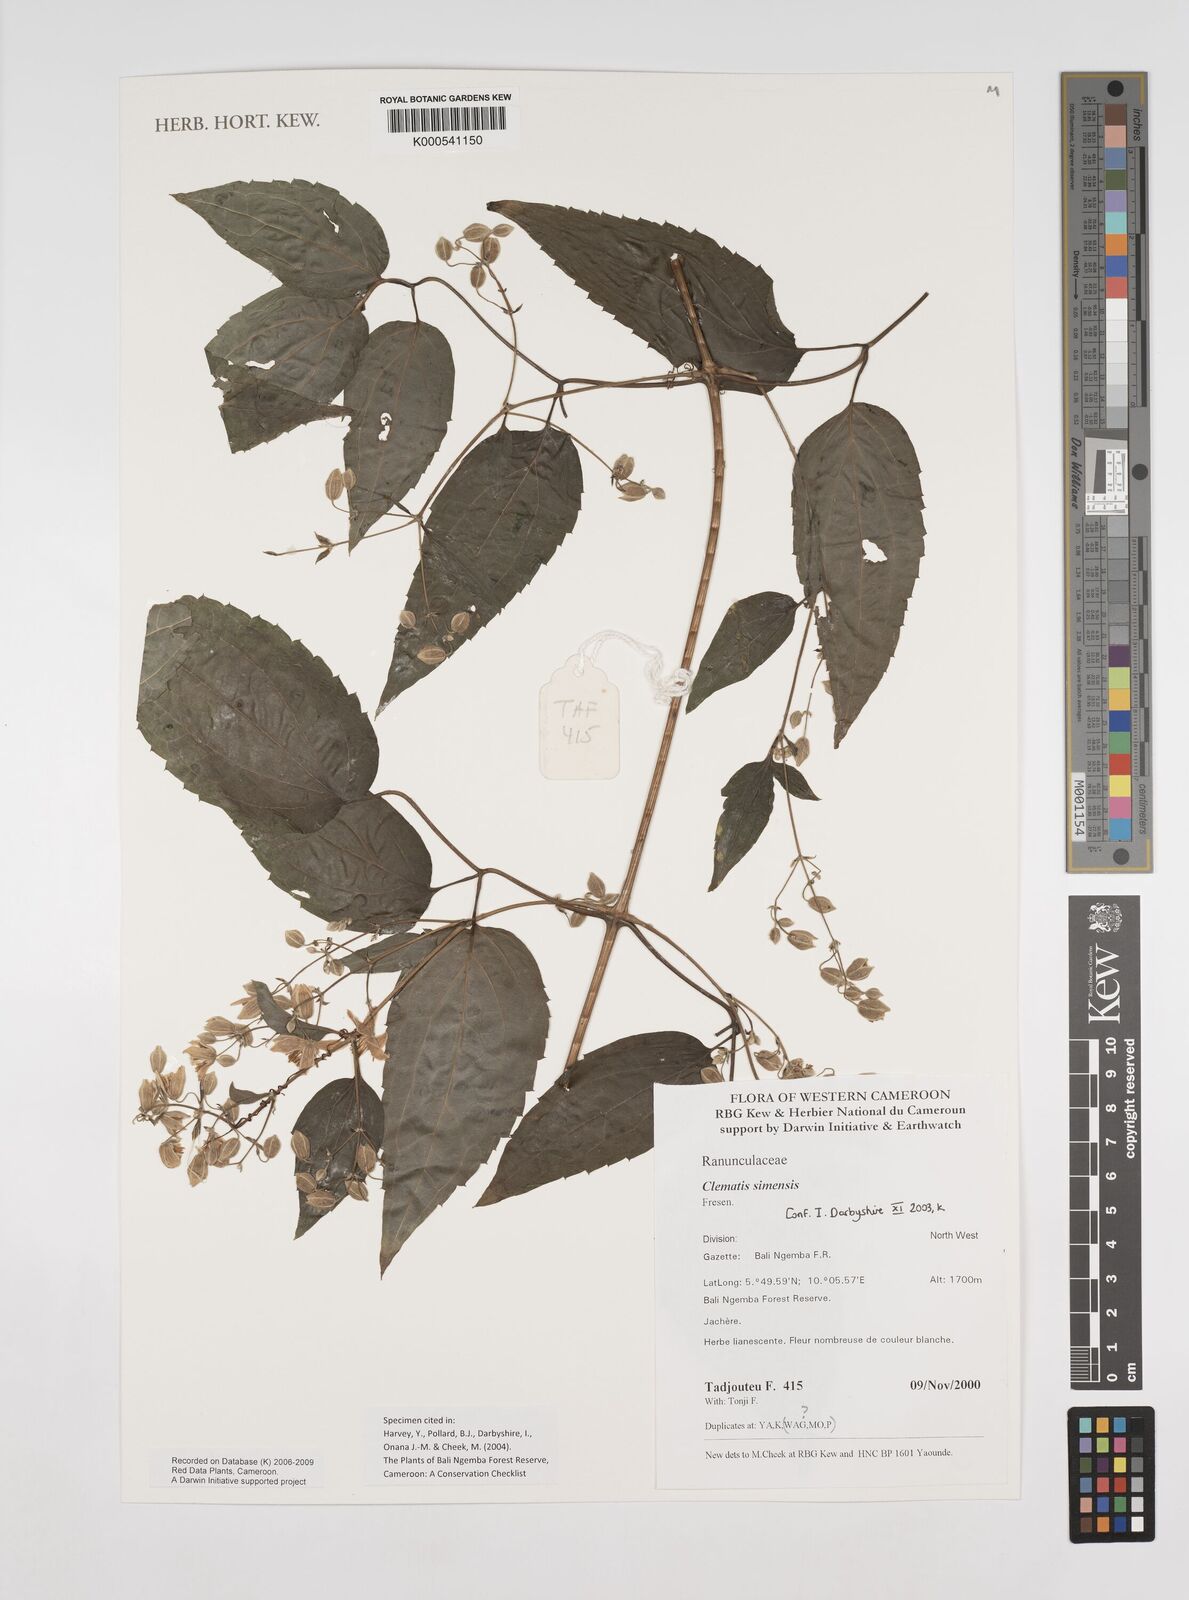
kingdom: Plantae
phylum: Tracheophyta
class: Magnoliopsida
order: Ranunculales
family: Ranunculaceae
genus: Clematis
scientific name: Clematis simensis
